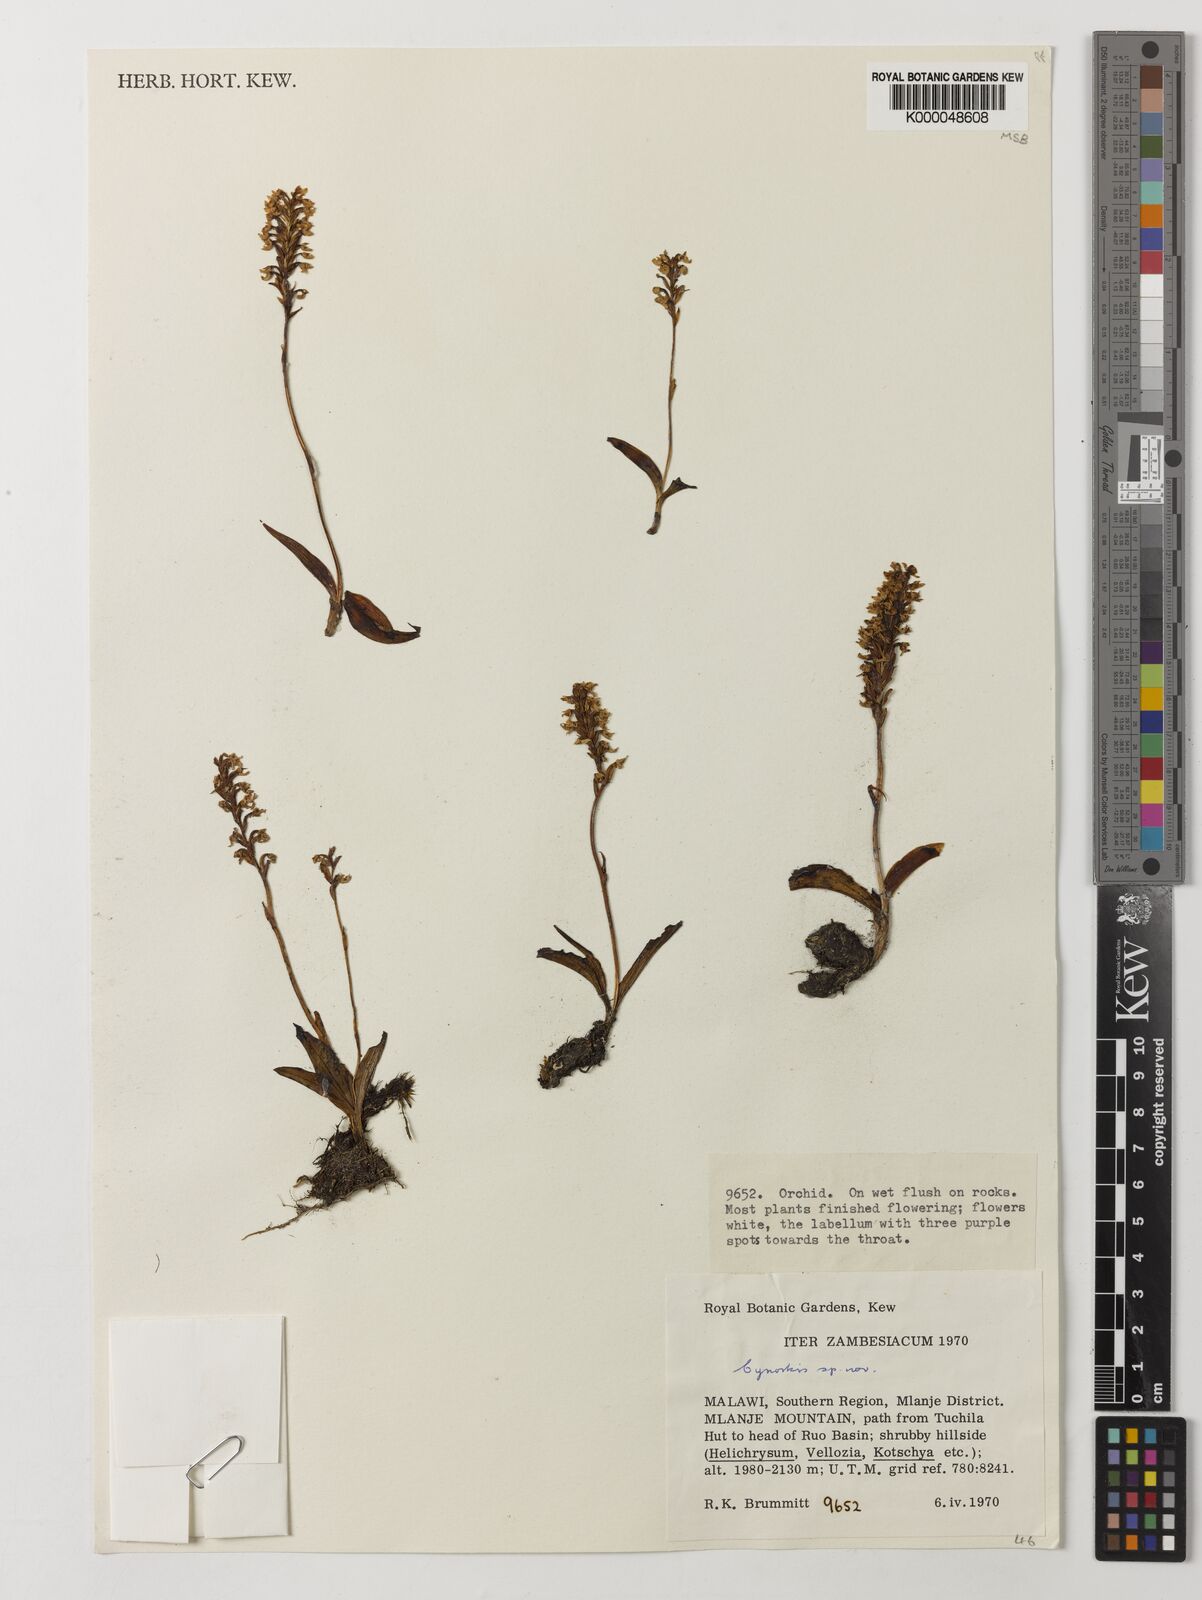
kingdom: Plantae
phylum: Tracheophyta
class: Liliopsida
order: Asparagales
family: Orchidaceae
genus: Cynorkis
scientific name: Cynorkis brevicalcar
